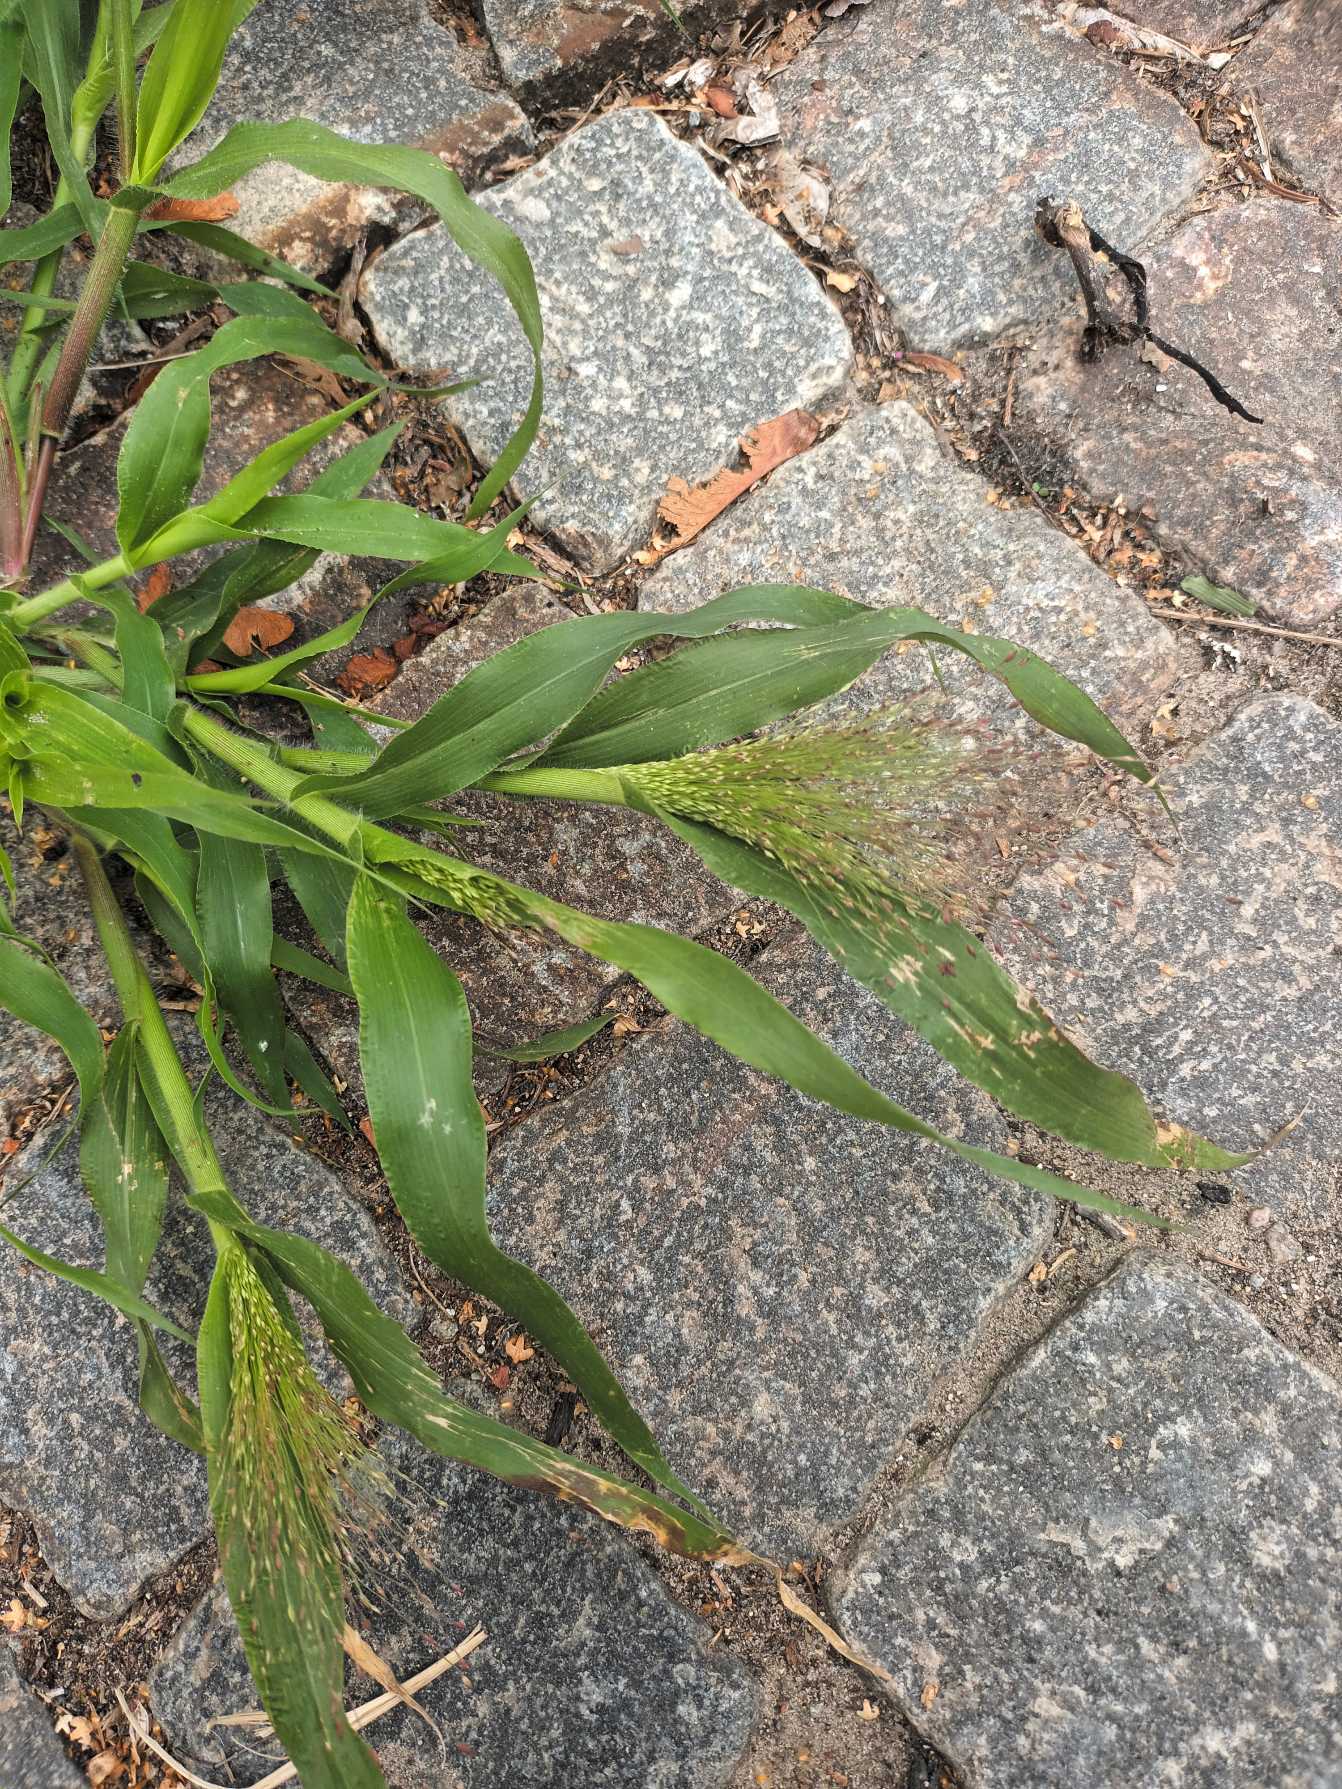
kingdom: Plantae
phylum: Tracheophyta
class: Liliopsida
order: Poales
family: Poaceae
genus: Panicum
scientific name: Panicum capillare
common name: Hårfin hirse
